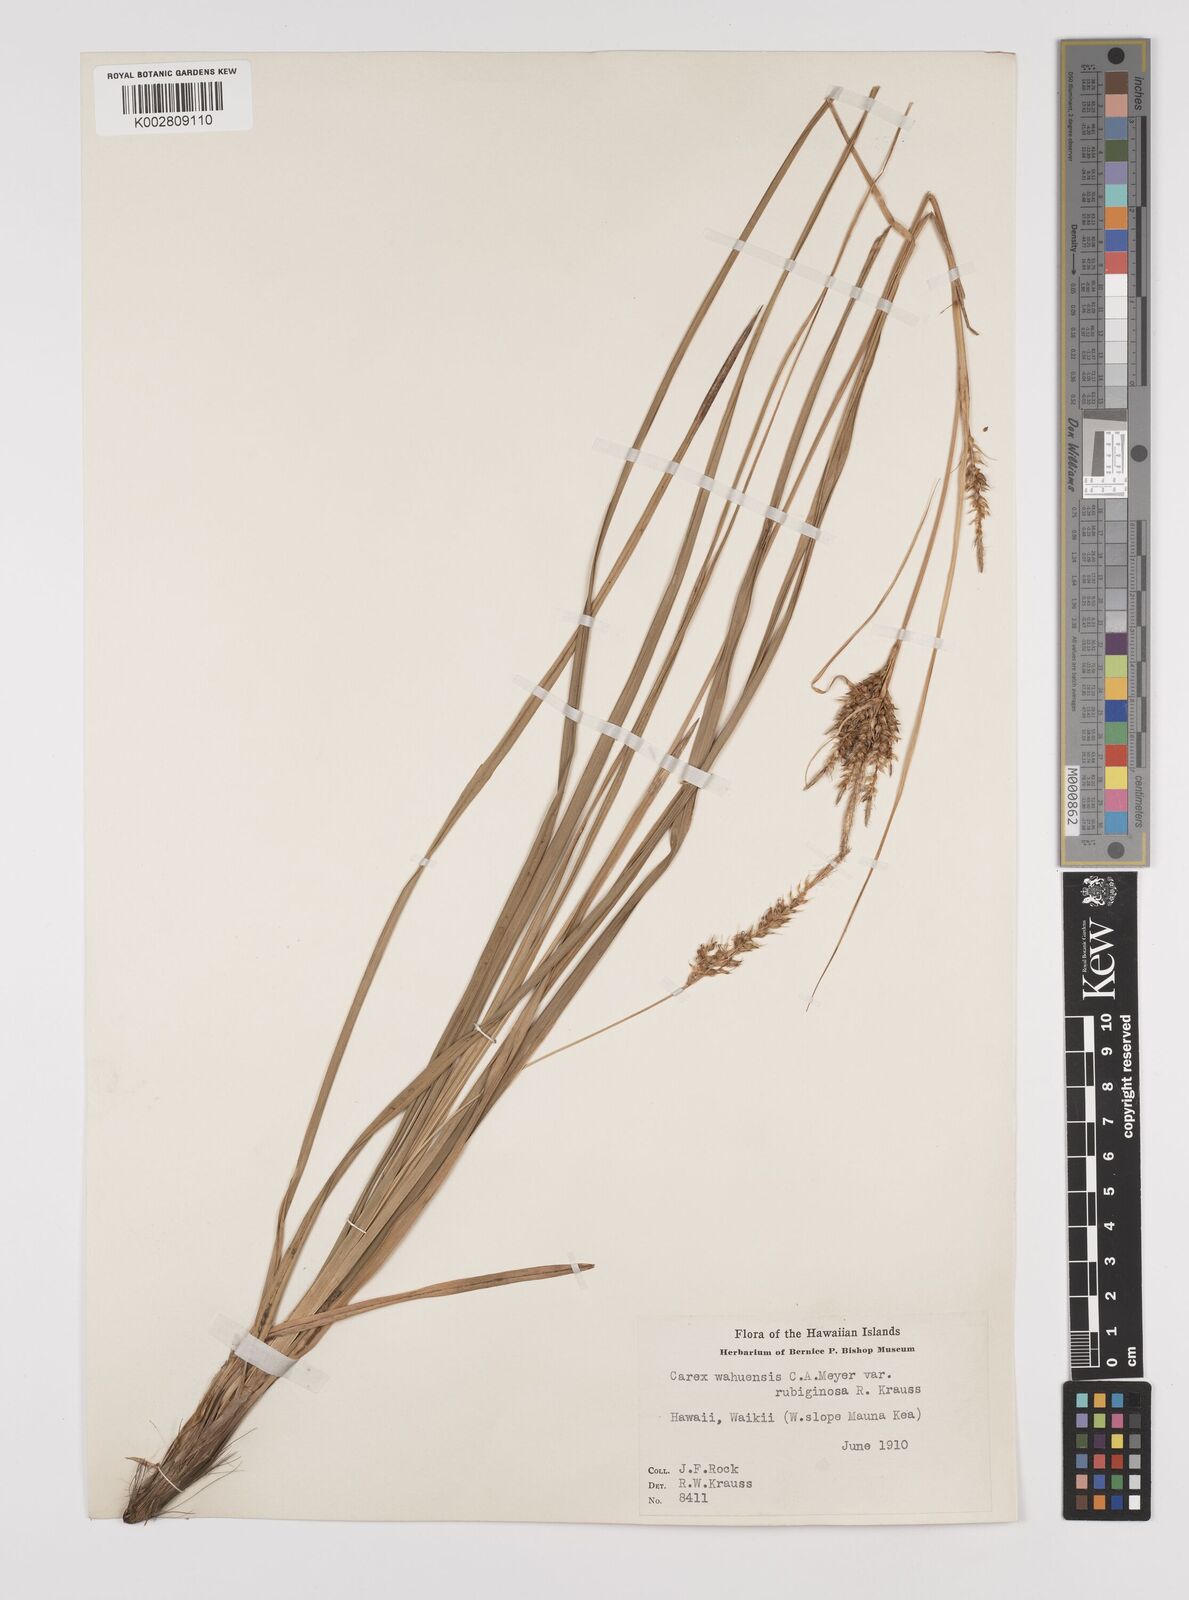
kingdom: Plantae
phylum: Tracheophyta
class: Liliopsida
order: Poales
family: Cyperaceae
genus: Carex
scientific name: Carex wahuensis
